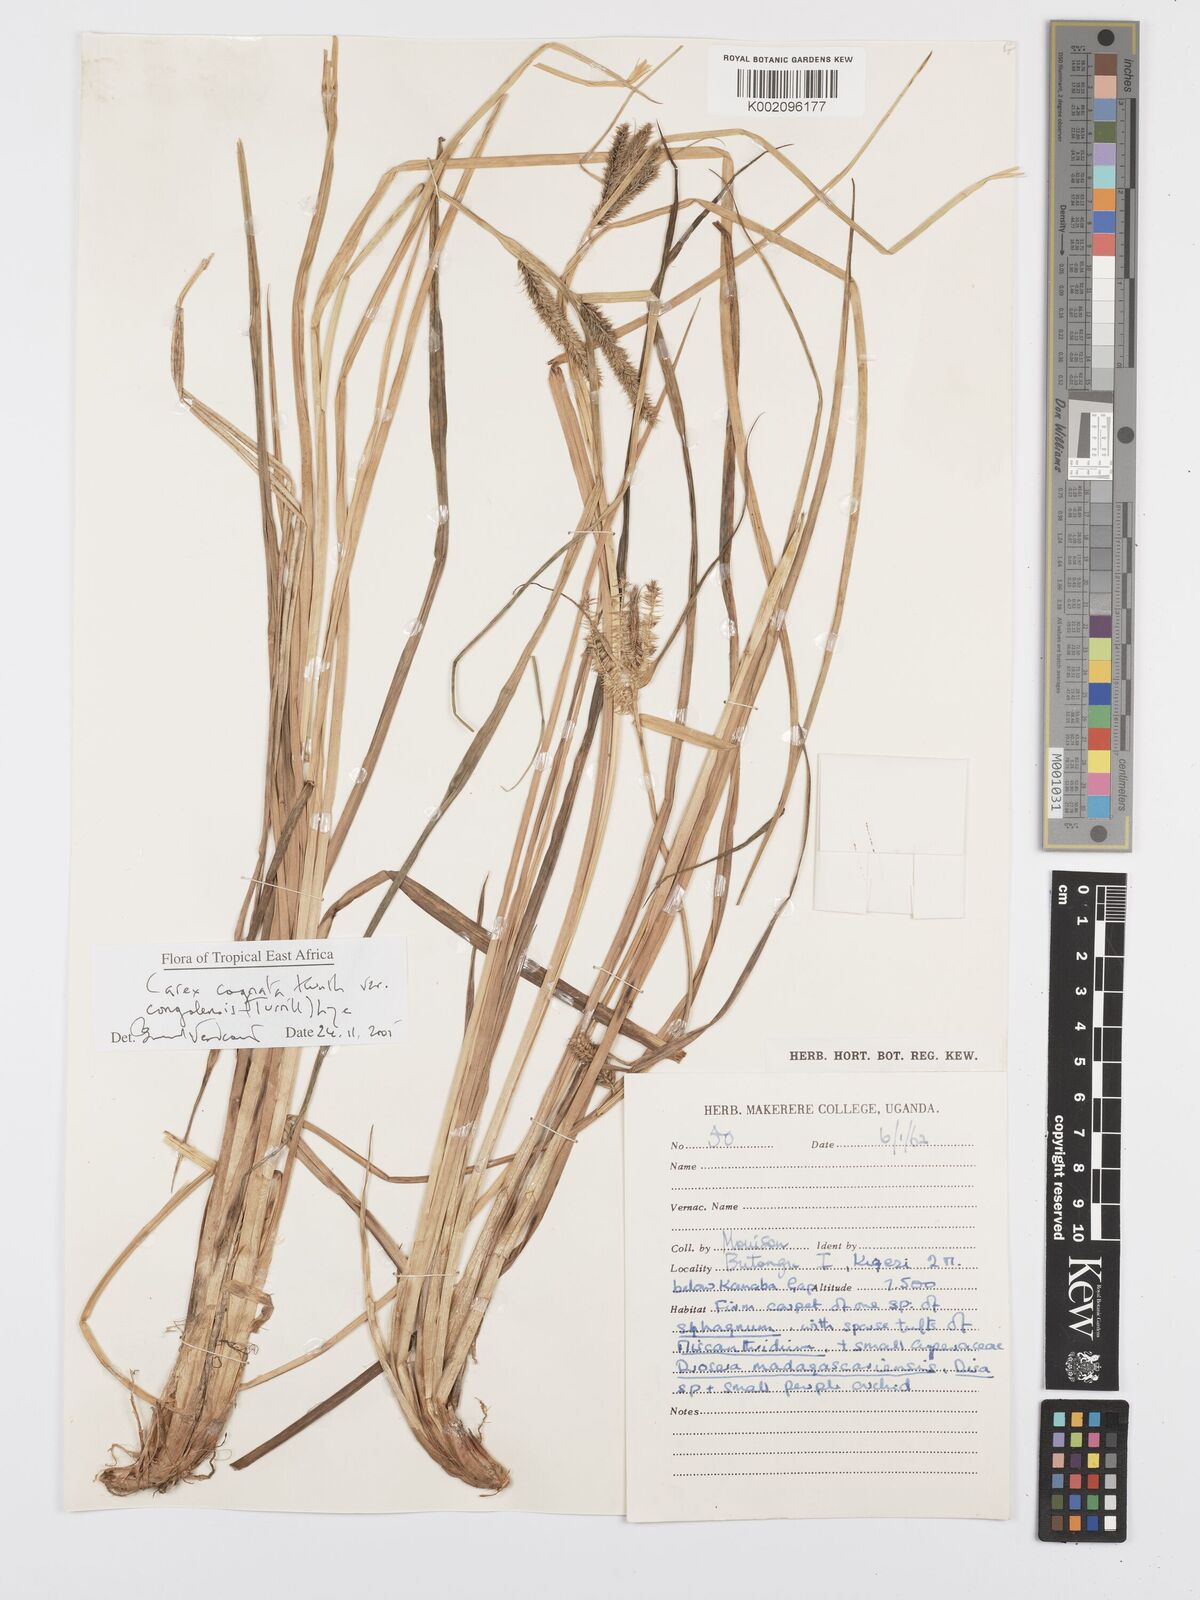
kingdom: Plantae
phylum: Tracheophyta
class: Liliopsida
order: Poales
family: Cyperaceae
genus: Carex
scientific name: Carex cognata
